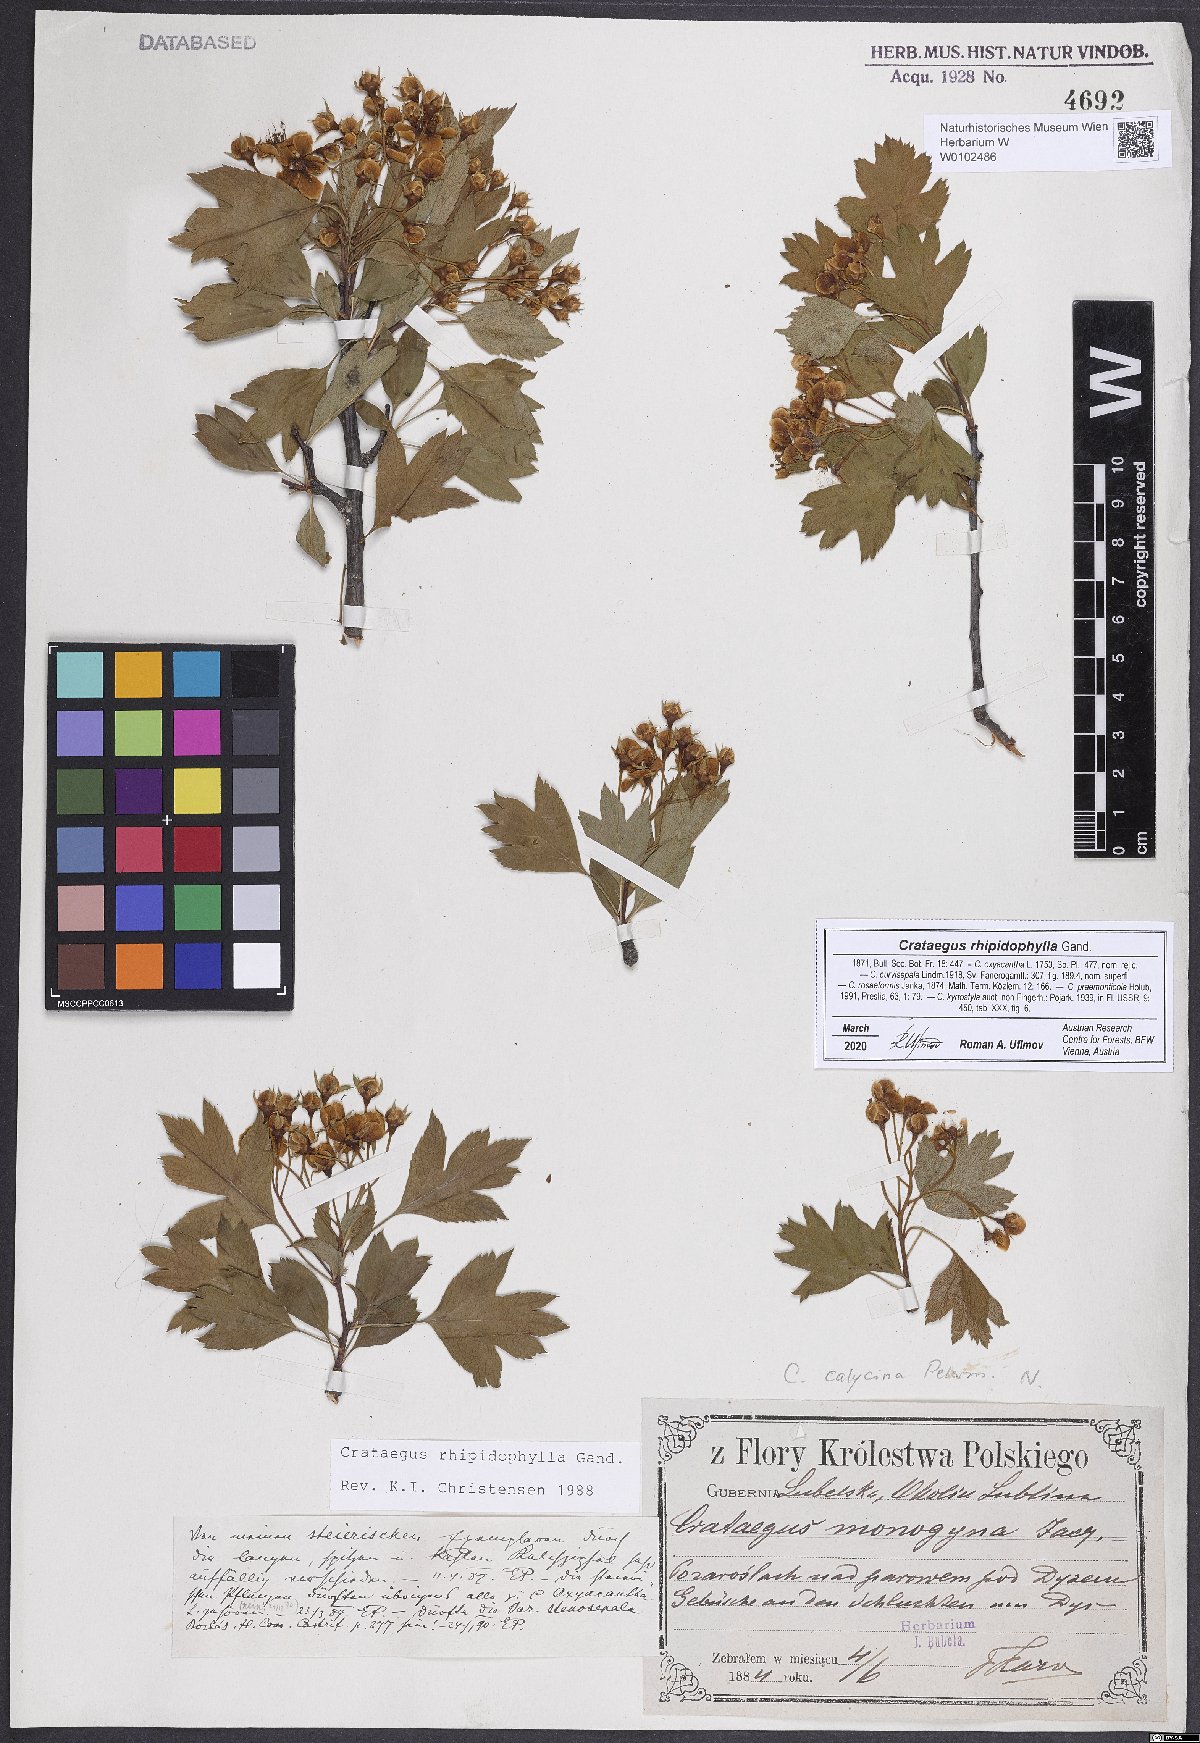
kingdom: Plantae
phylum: Tracheophyta
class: Magnoliopsida
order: Rosales
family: Rosaceae
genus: Crataegus
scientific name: Crataegus rhipidophylla
